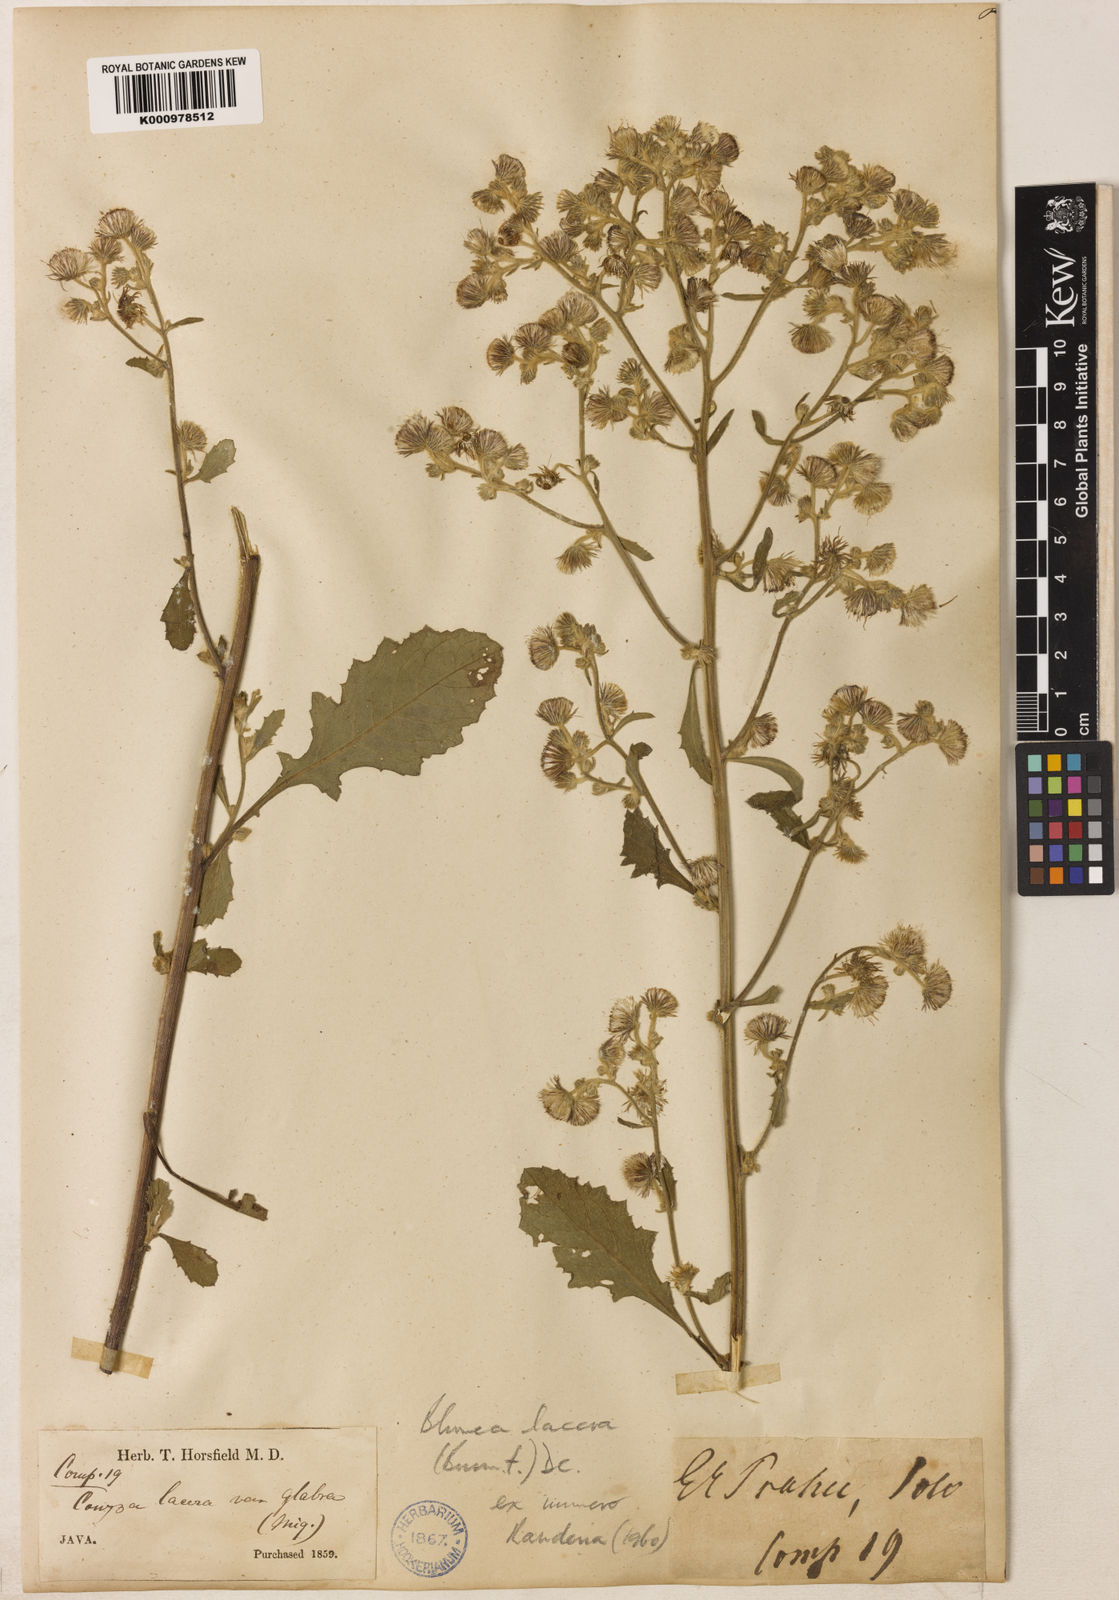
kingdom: Plantae
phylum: Tracheophyta
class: Magnoliopsida
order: Asterales
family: Asteraceae
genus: Blumea
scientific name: Blumea lacera
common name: Malay blumea
